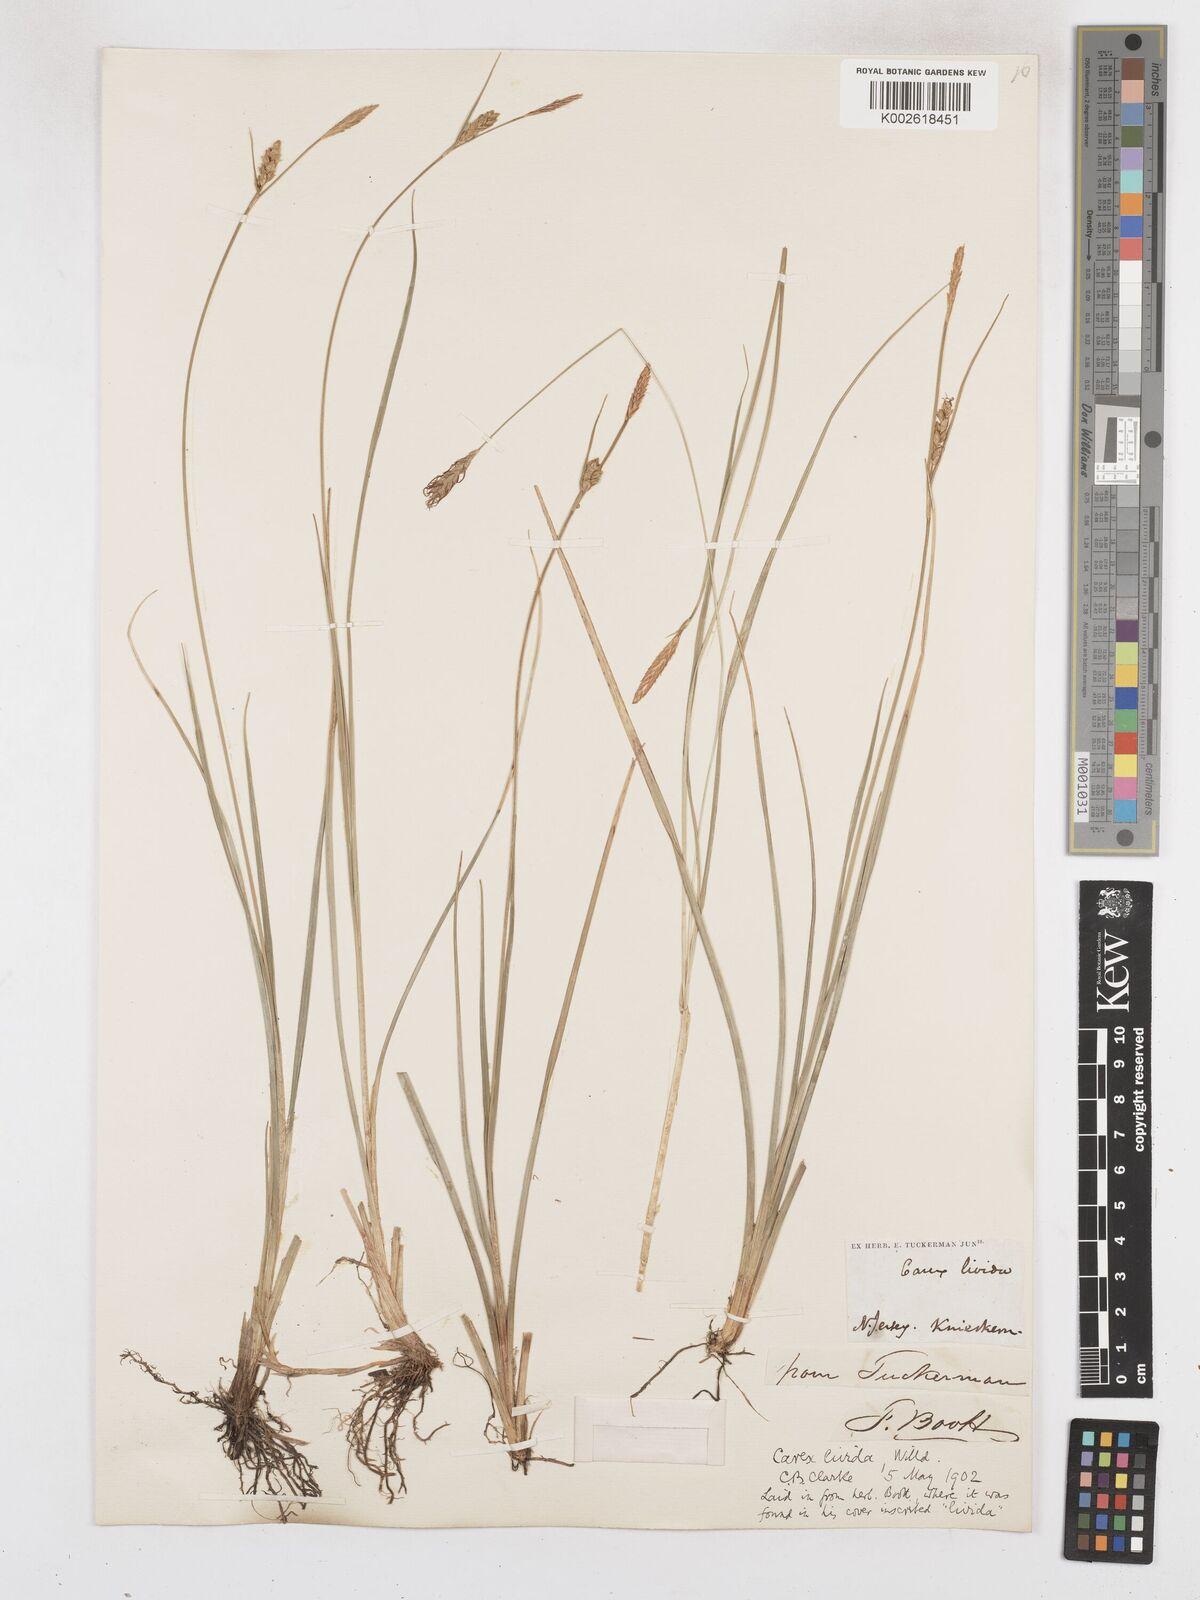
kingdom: Plantae
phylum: Tracheophyta
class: Liliopsida
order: Poales
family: Cyperaceae
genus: Carex
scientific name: Carex livida
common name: Livid sedge
